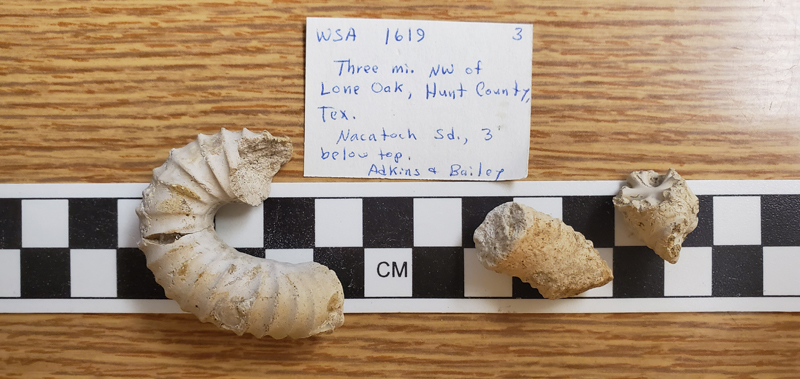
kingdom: Animalia
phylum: Mollusca
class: Cephalopoda
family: Nostoceratidae
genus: Nostoceras
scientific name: Nostoceras
